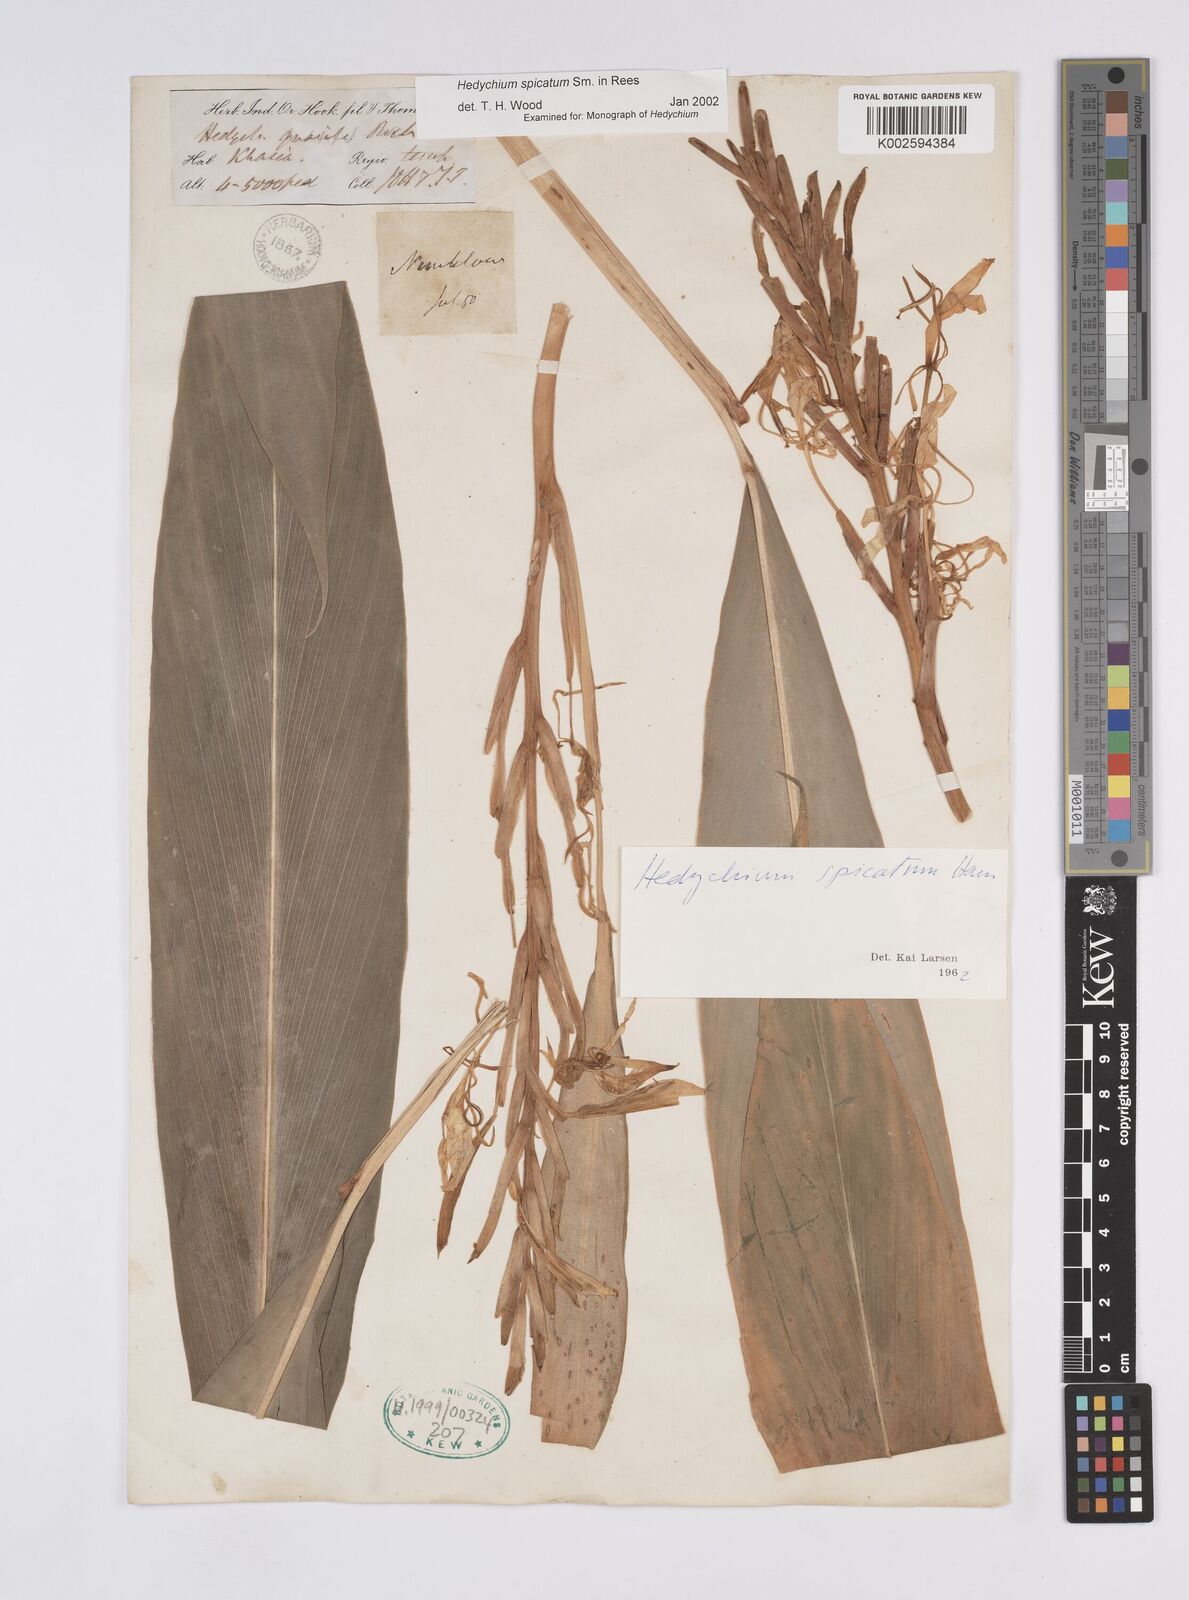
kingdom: Plantae
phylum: Tracheophyta
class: Liliopsida
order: Zingiberales
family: Zingiberaceae
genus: Hedychium
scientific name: Hedychium spicatum
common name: Spiked ginger-lily
